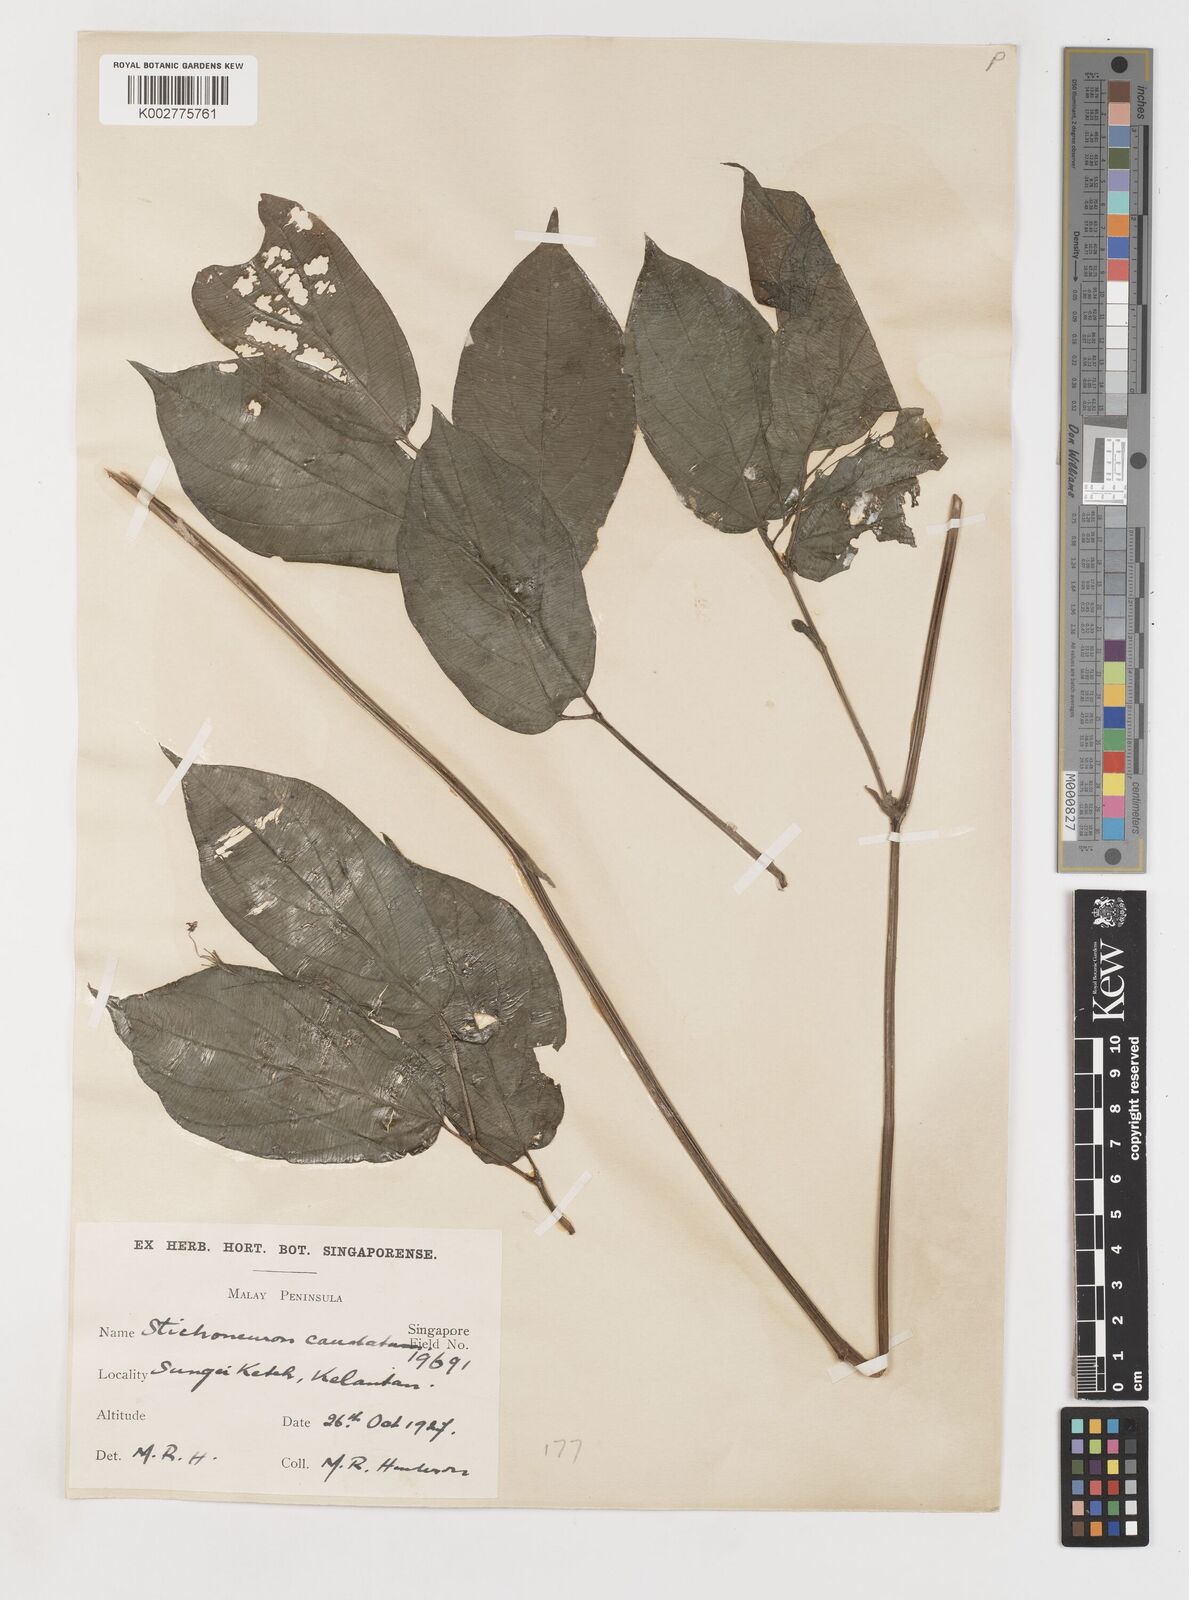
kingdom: Plantae
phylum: Tracheophyta
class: Liliopsida
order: Pandanales
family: Stemonaceae
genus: Stichoneuron
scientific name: Stichoneuron caudatum
